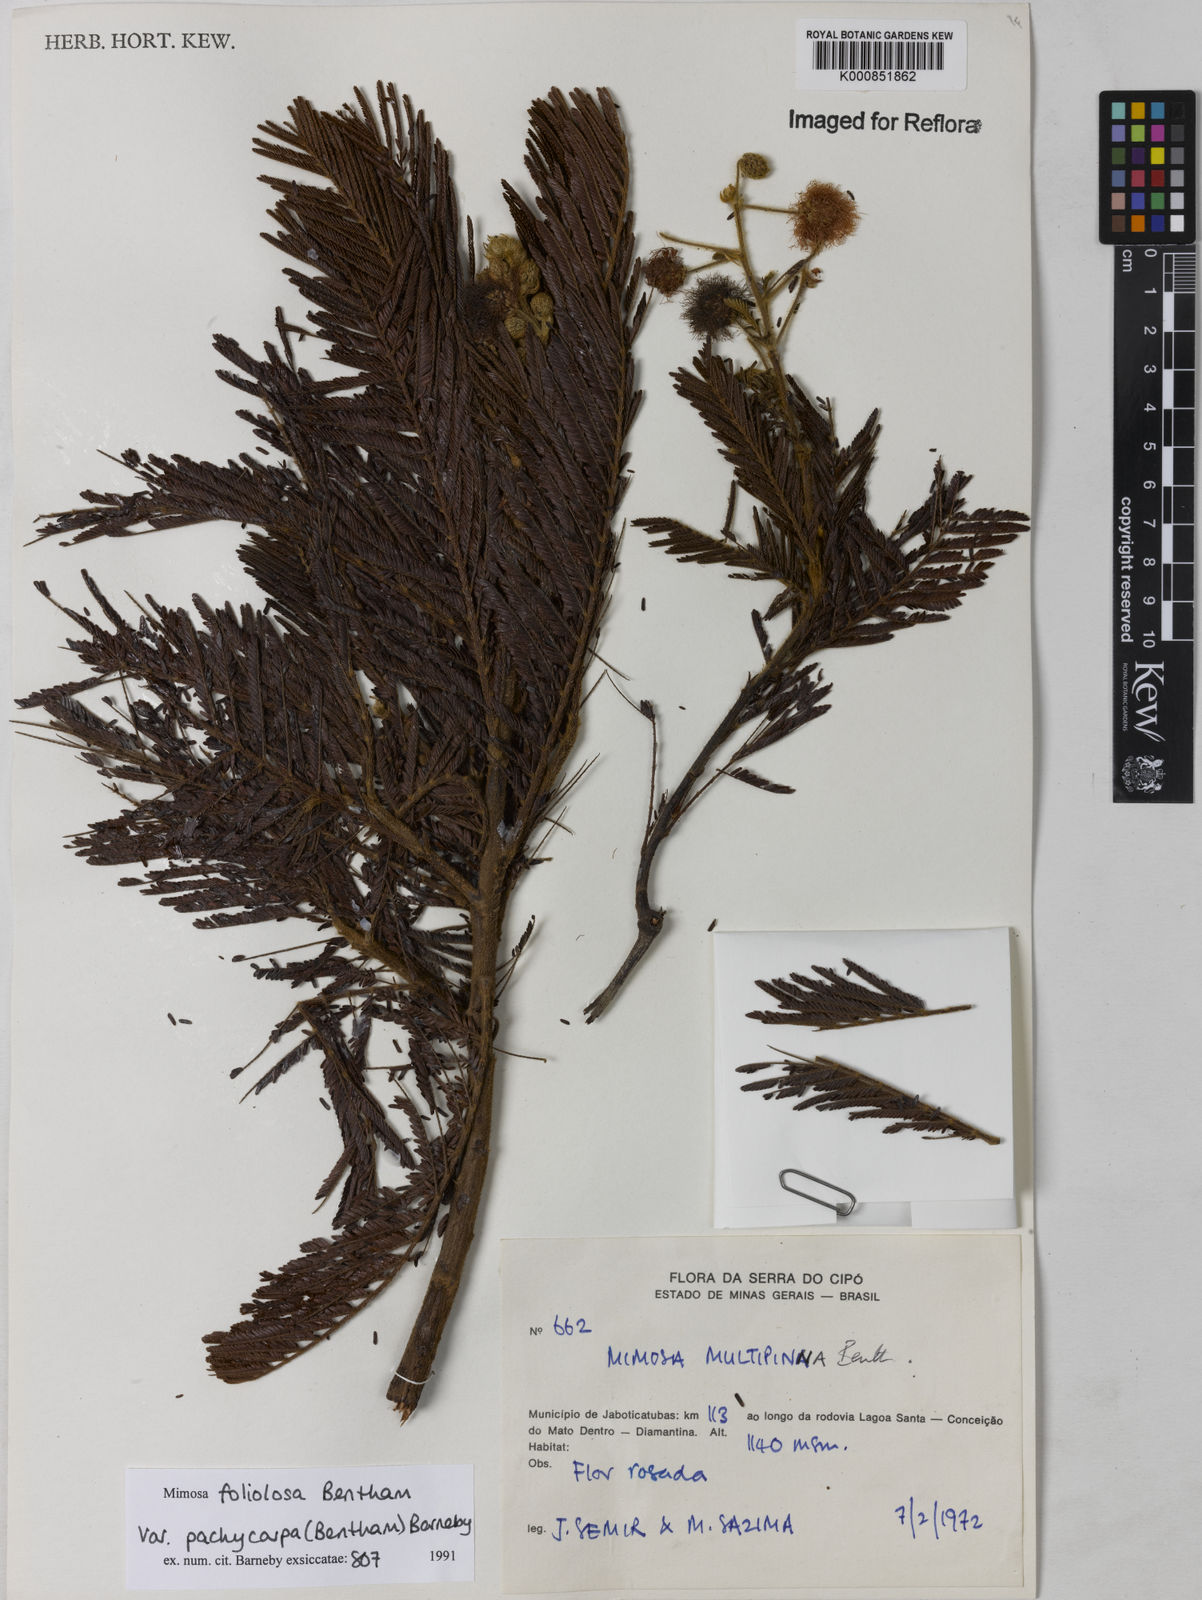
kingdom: Plantae
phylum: Tracheophyta
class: Magnoliopsida
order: Fabales
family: Fabaceae
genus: Mimosa
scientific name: Mimosa foliolosa
